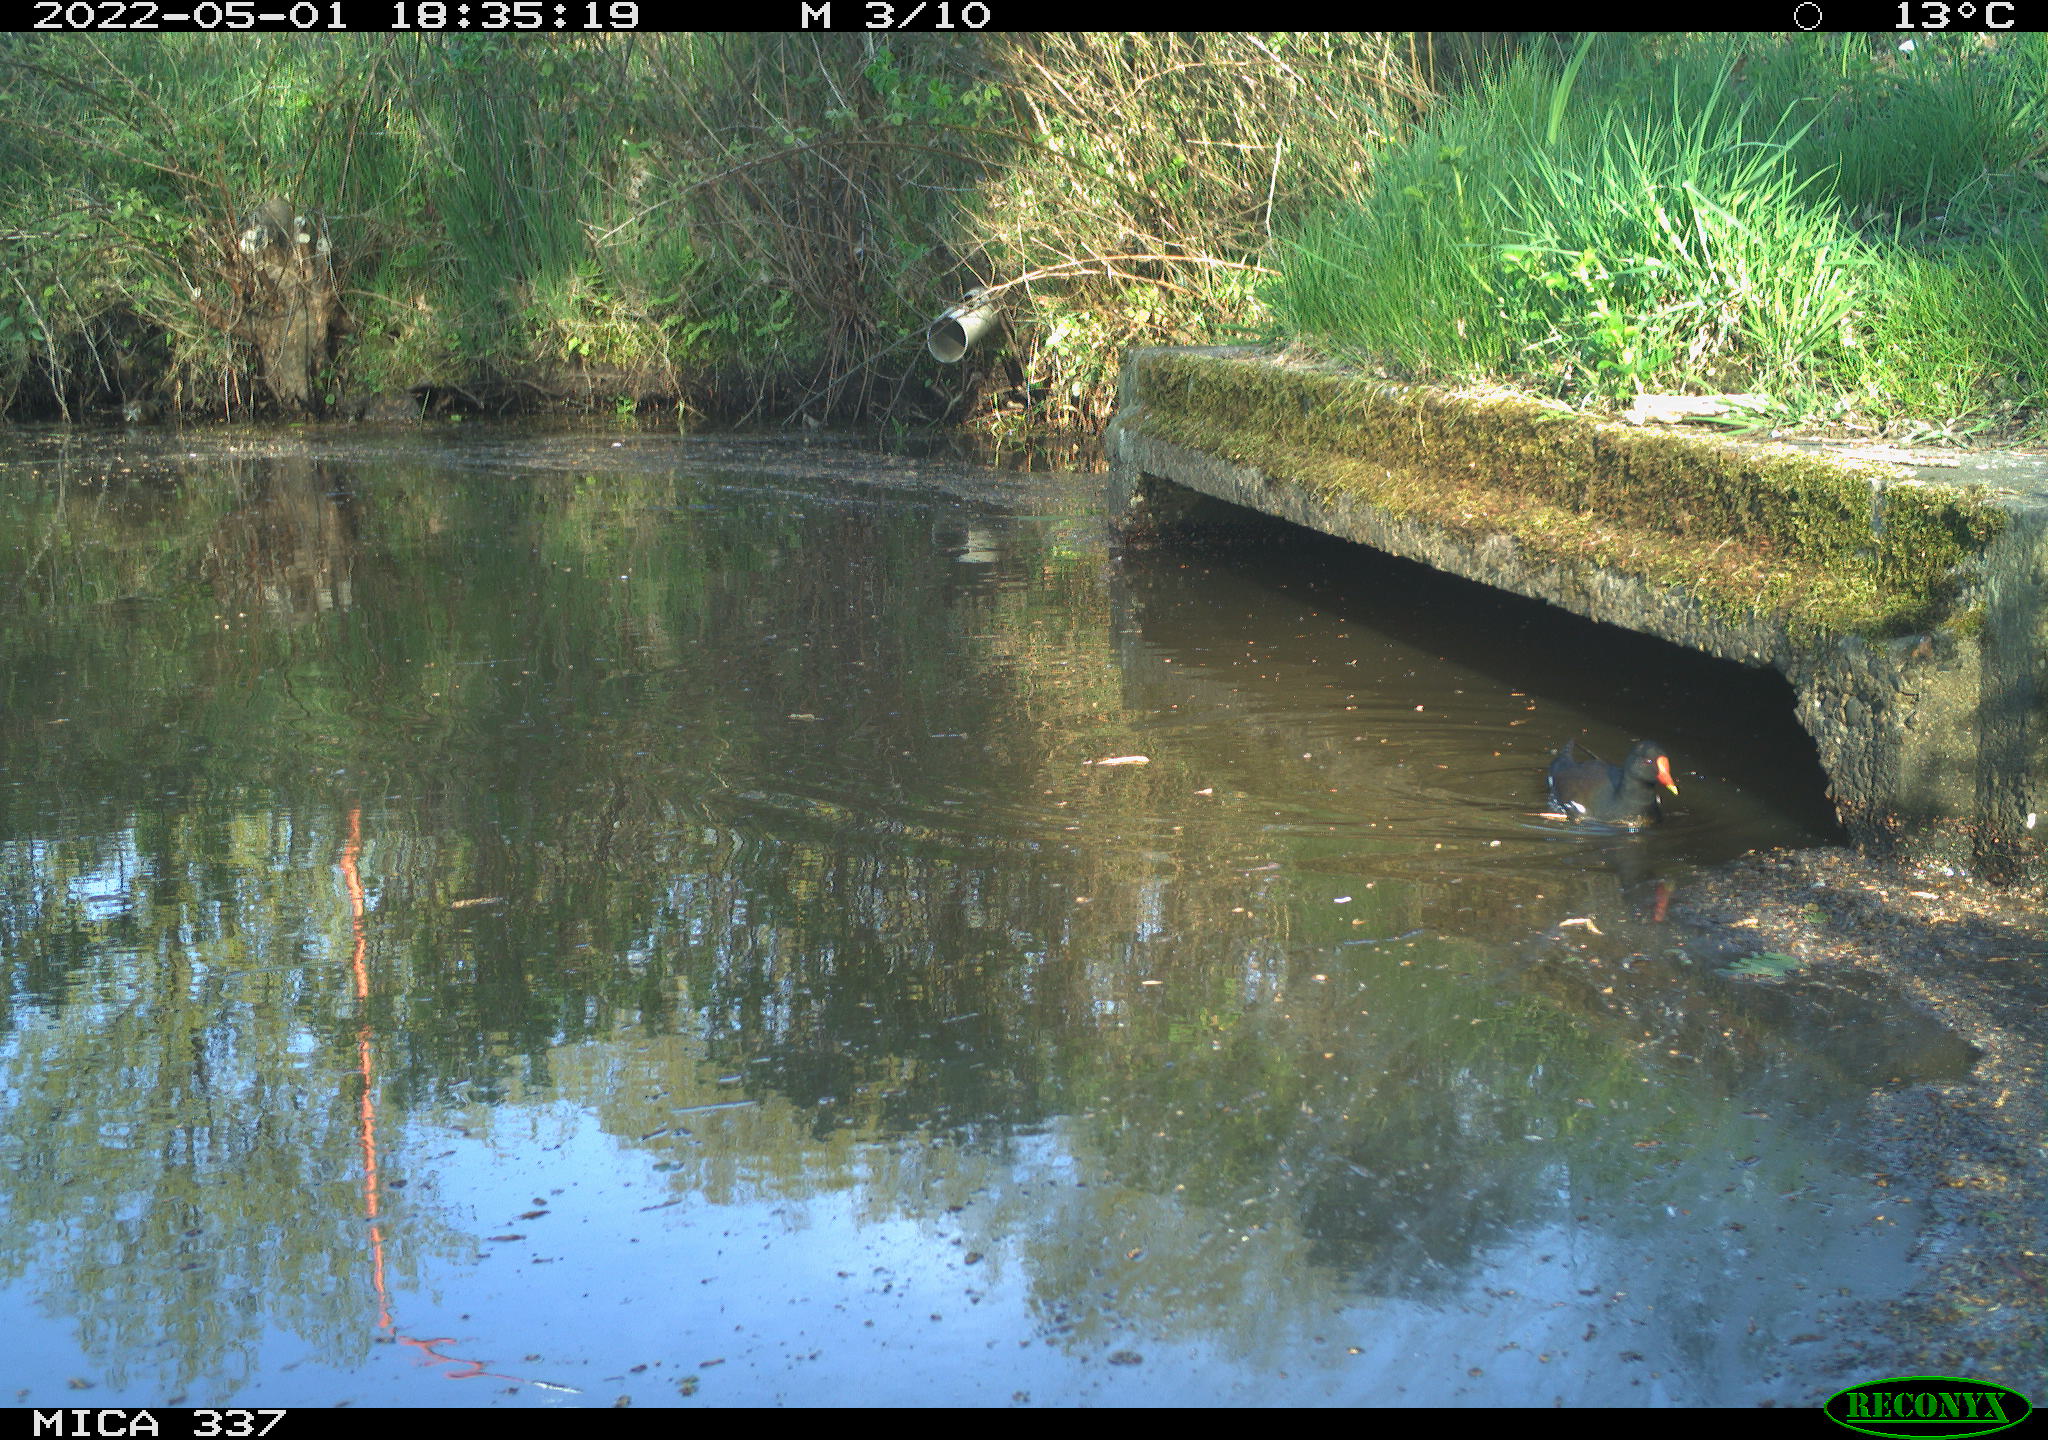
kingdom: Animalia
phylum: Chordata
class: Aves
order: Gruiformes
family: Rallidae
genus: Gallinula
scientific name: Gallinula chloropus
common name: Common moorhen
